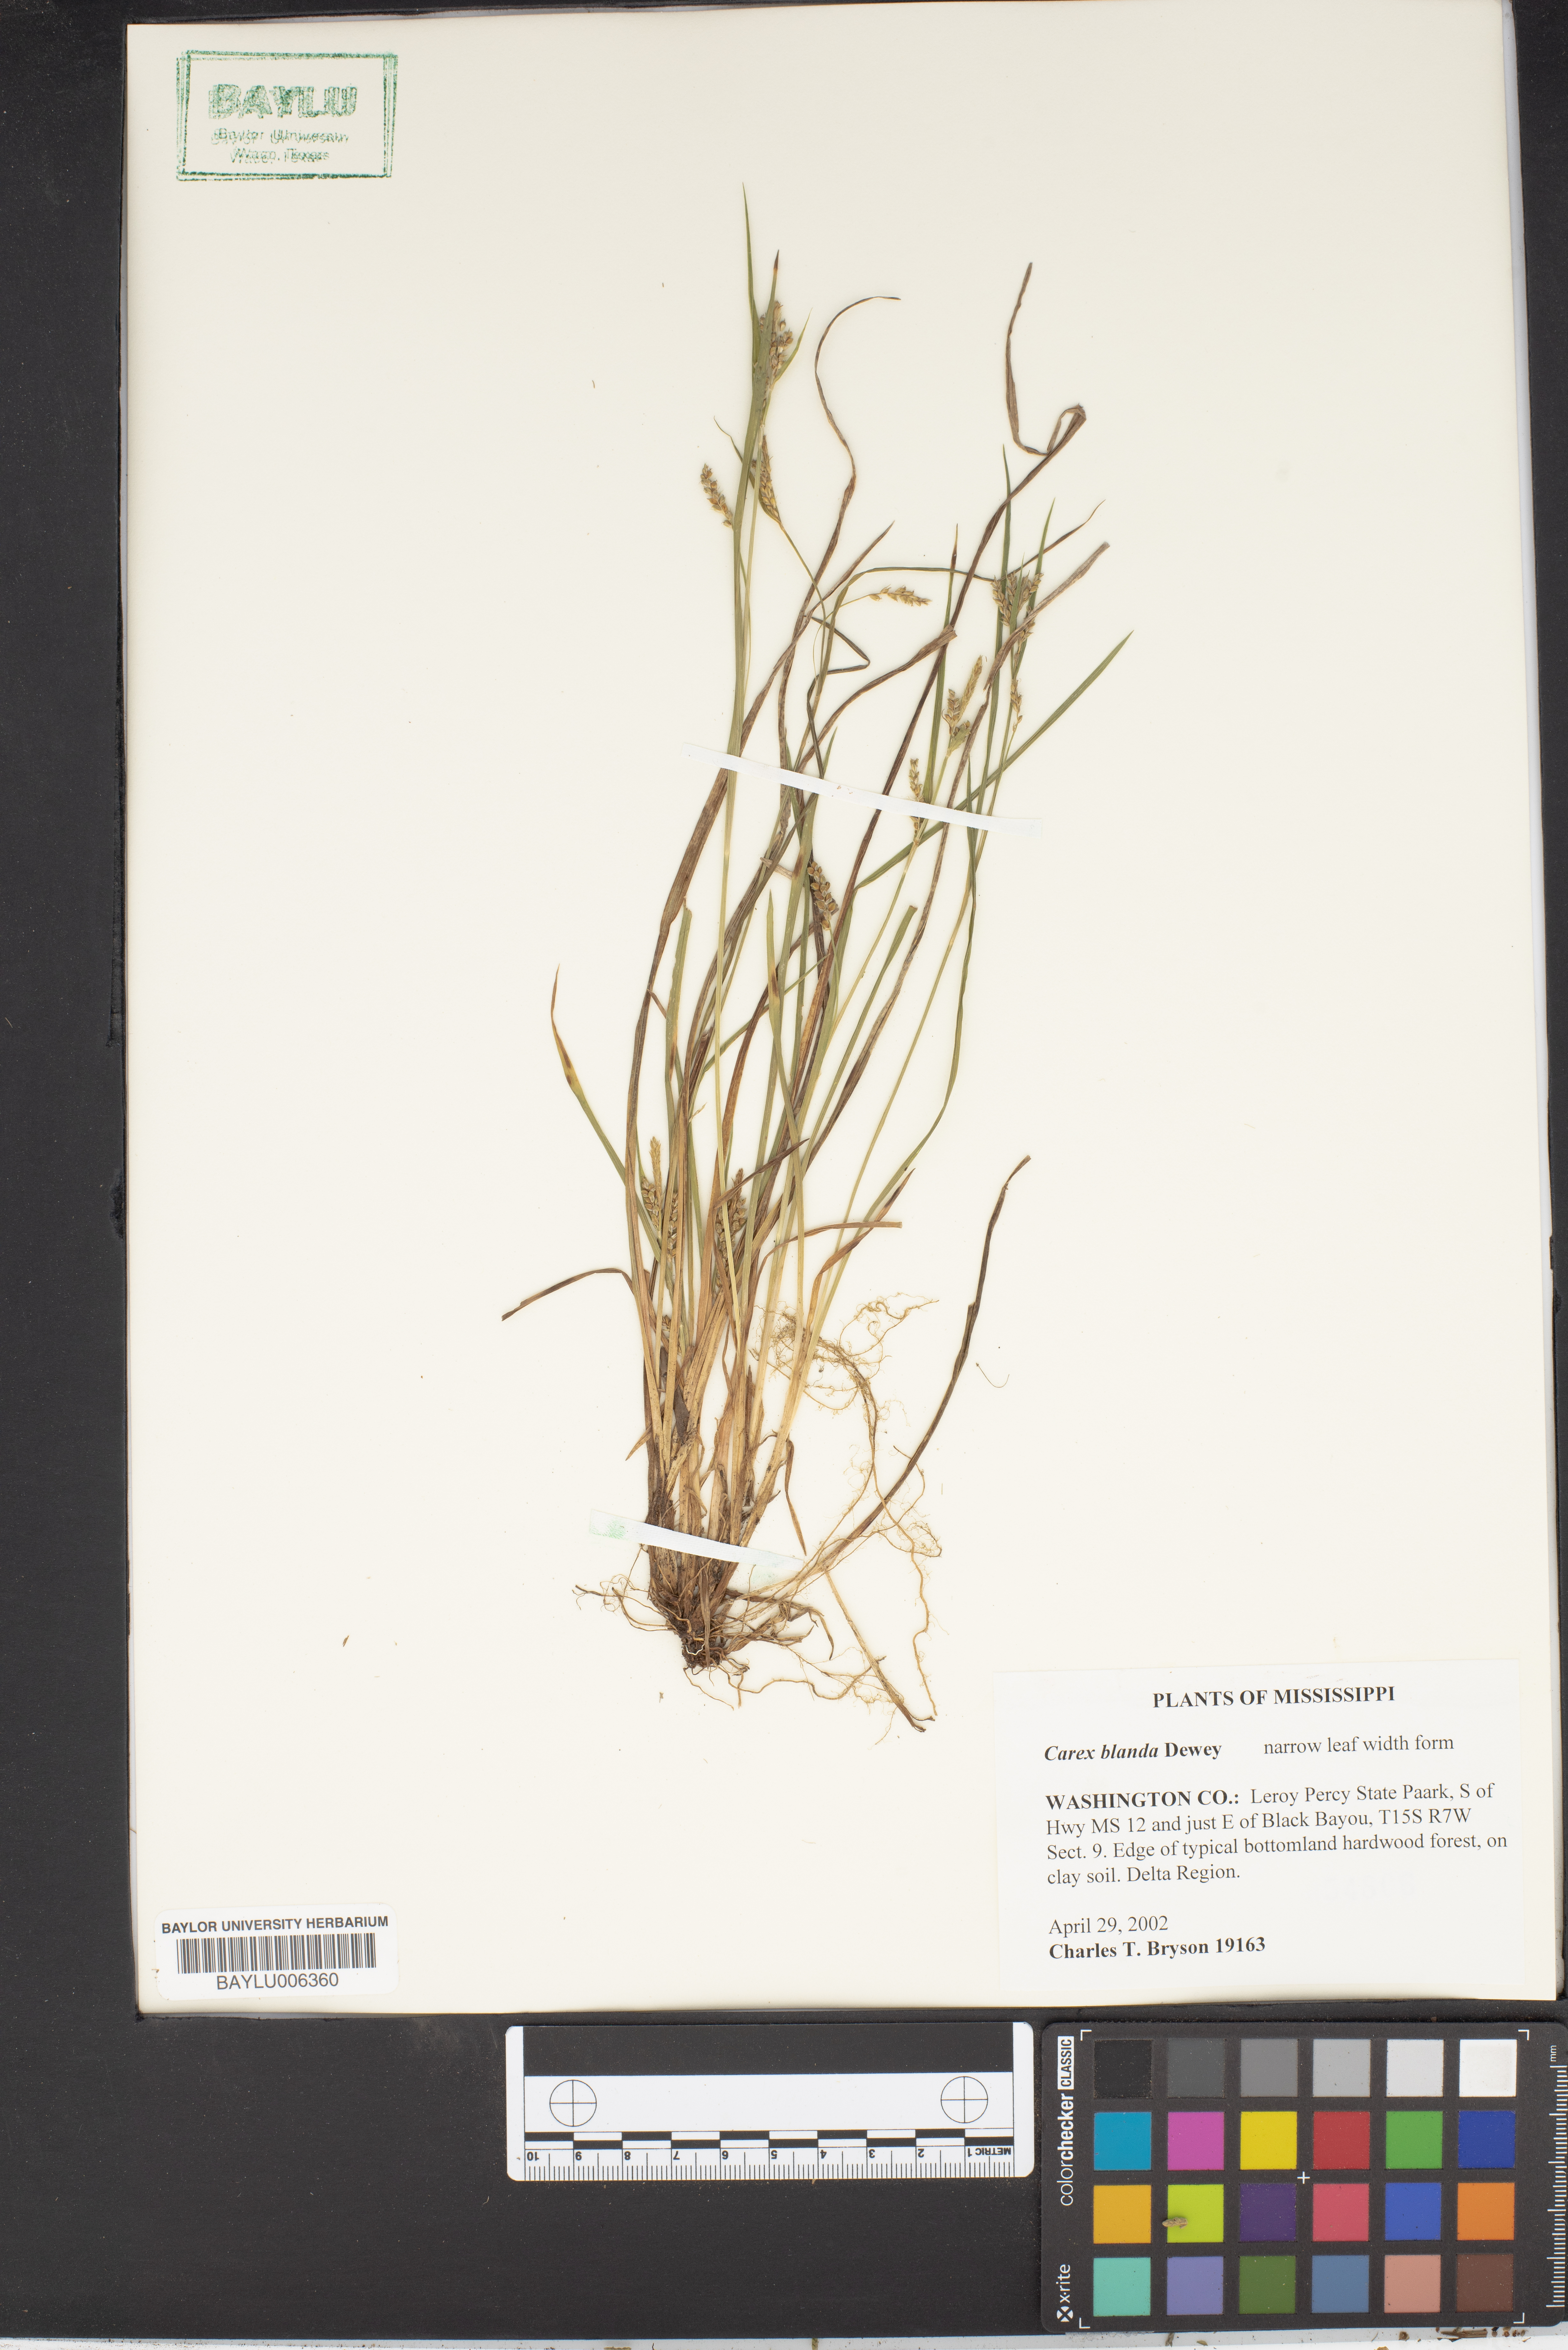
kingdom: Plantae
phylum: Tracheophyta
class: Liliopsida
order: Poales
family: Cyperaceae
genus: Carex
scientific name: Carex blanda
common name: Bland sedge
